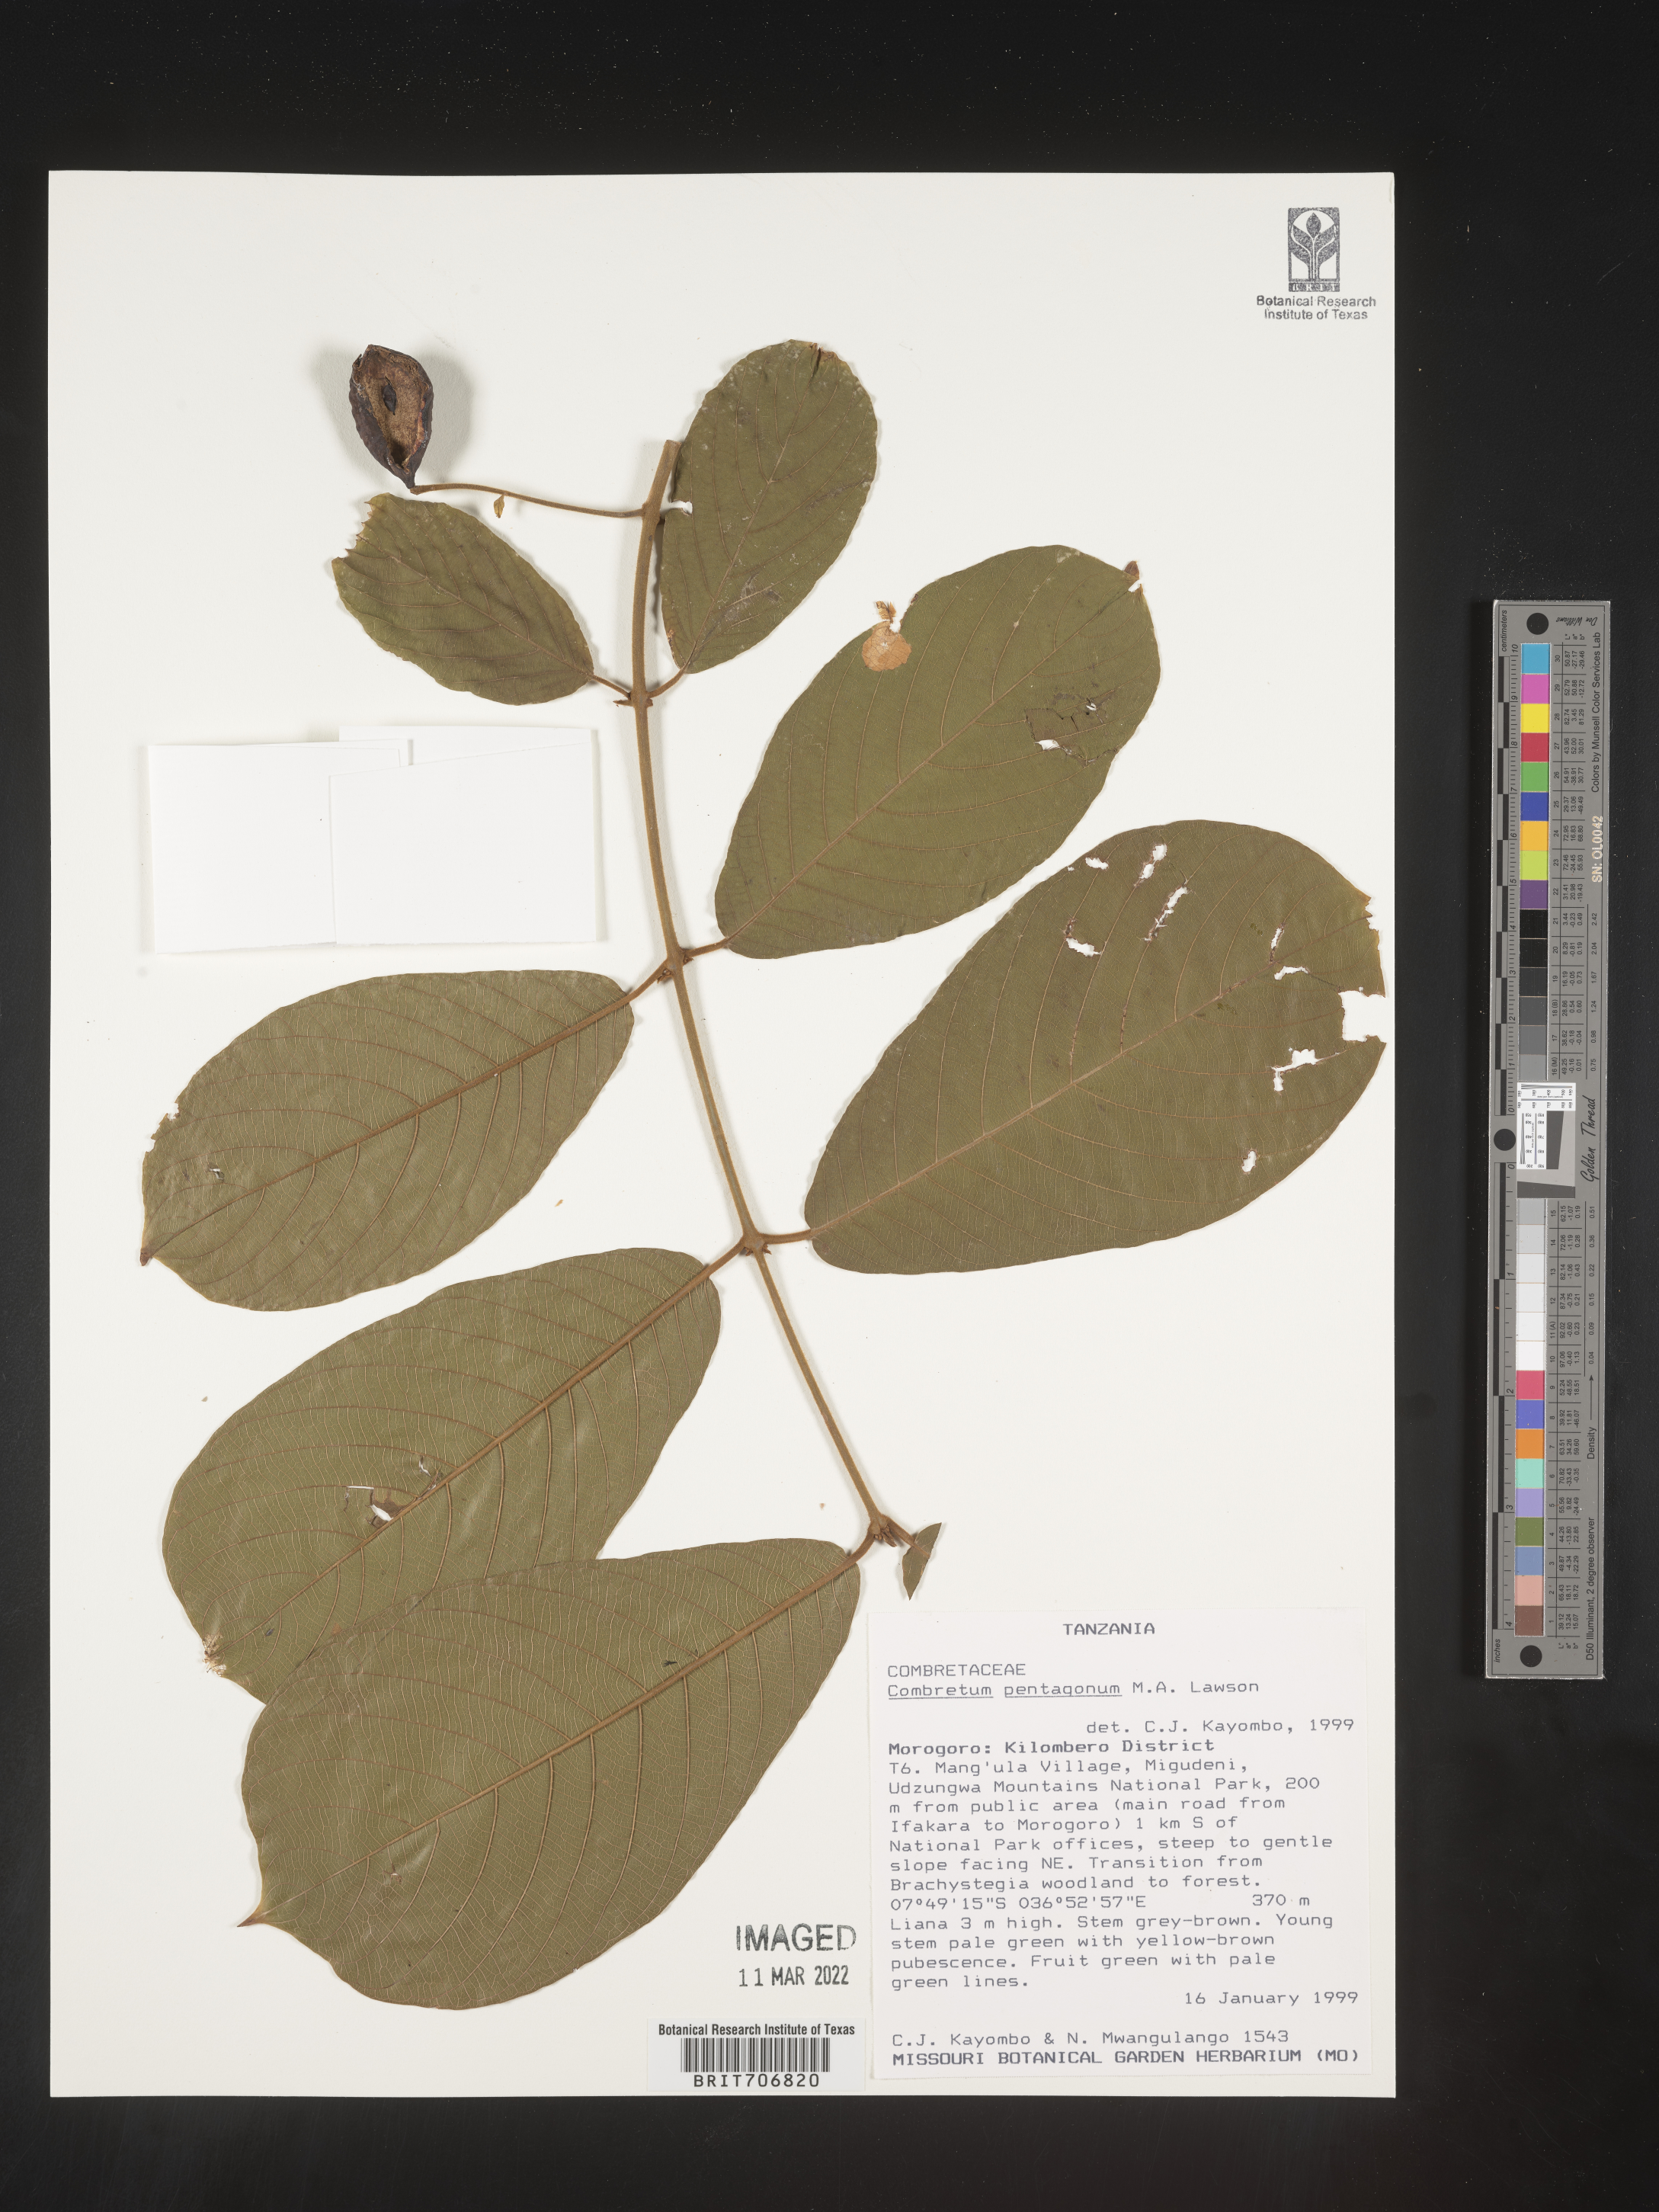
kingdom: Plantae
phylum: Tracheophyta
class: Magnoliopsida
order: Myrtales
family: Combretaceae
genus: Combretum
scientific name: Combretum
